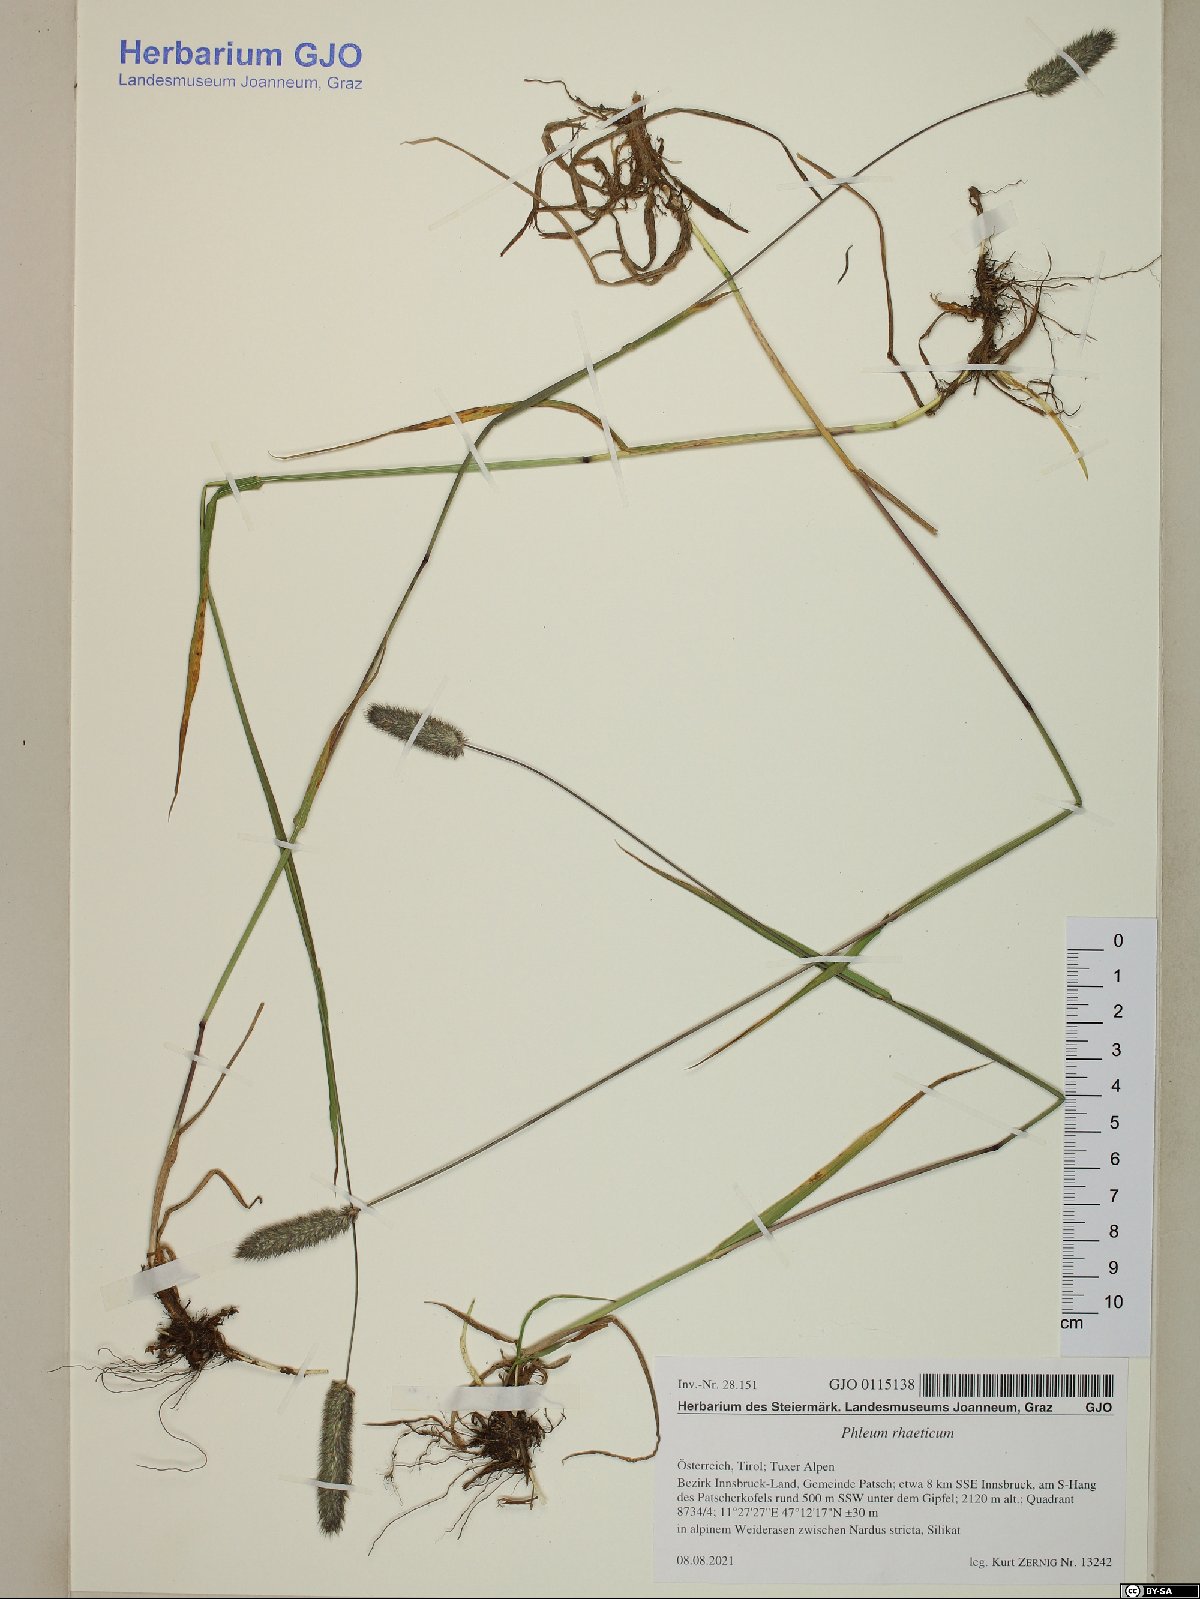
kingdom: Plantae
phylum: Tracheophyta
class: Liliopsida
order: Poales
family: Poaceae
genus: Phleum
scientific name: Phleum alpinum
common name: Alpine cat's-tail
